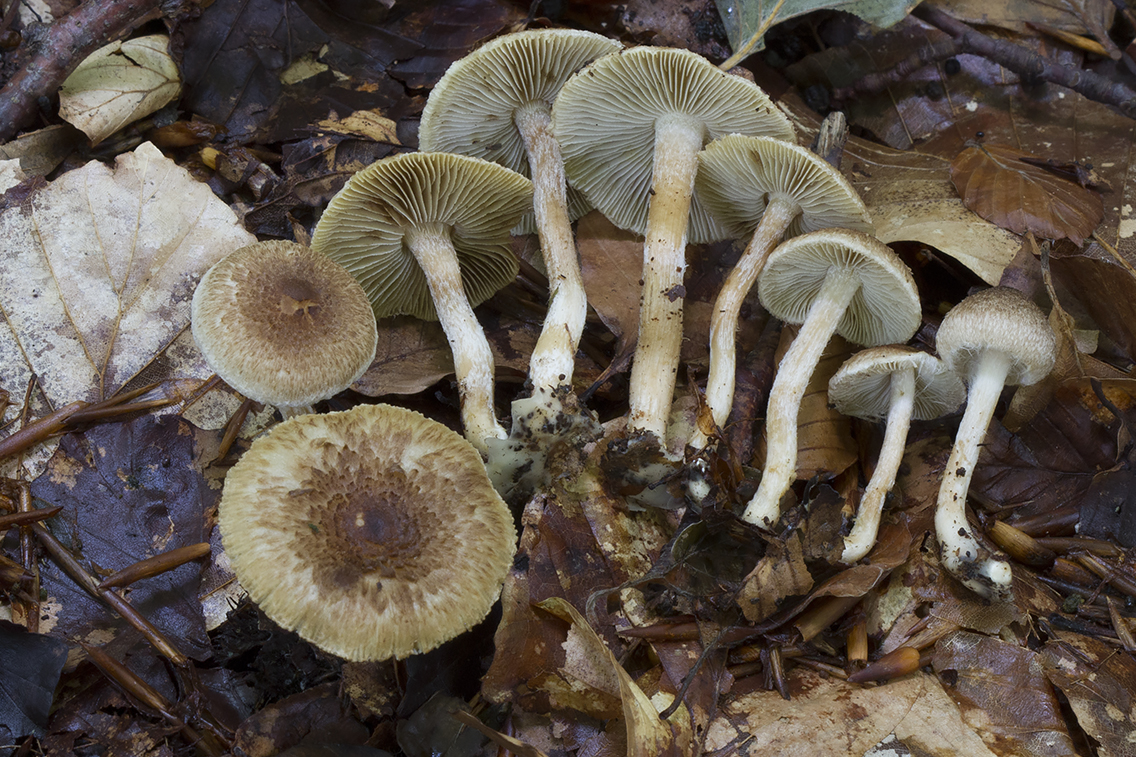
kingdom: Fungi
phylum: Basidiomycota
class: Agaricomycetes
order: Agaricales
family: Inocybaceae
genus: Inocybe
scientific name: Inocybe
